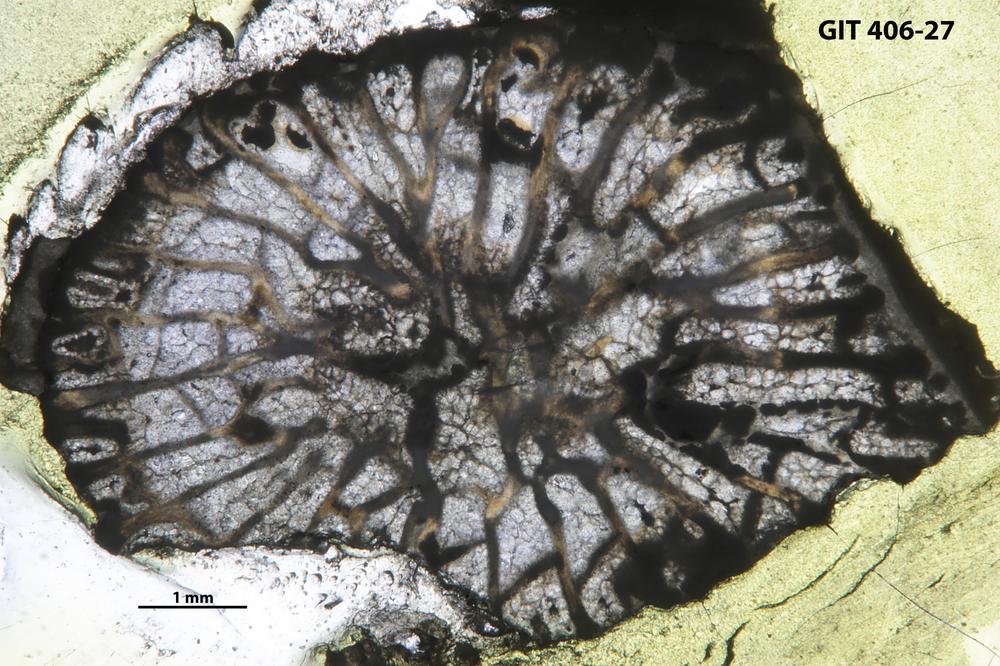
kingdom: Animalia
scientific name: Animalia
